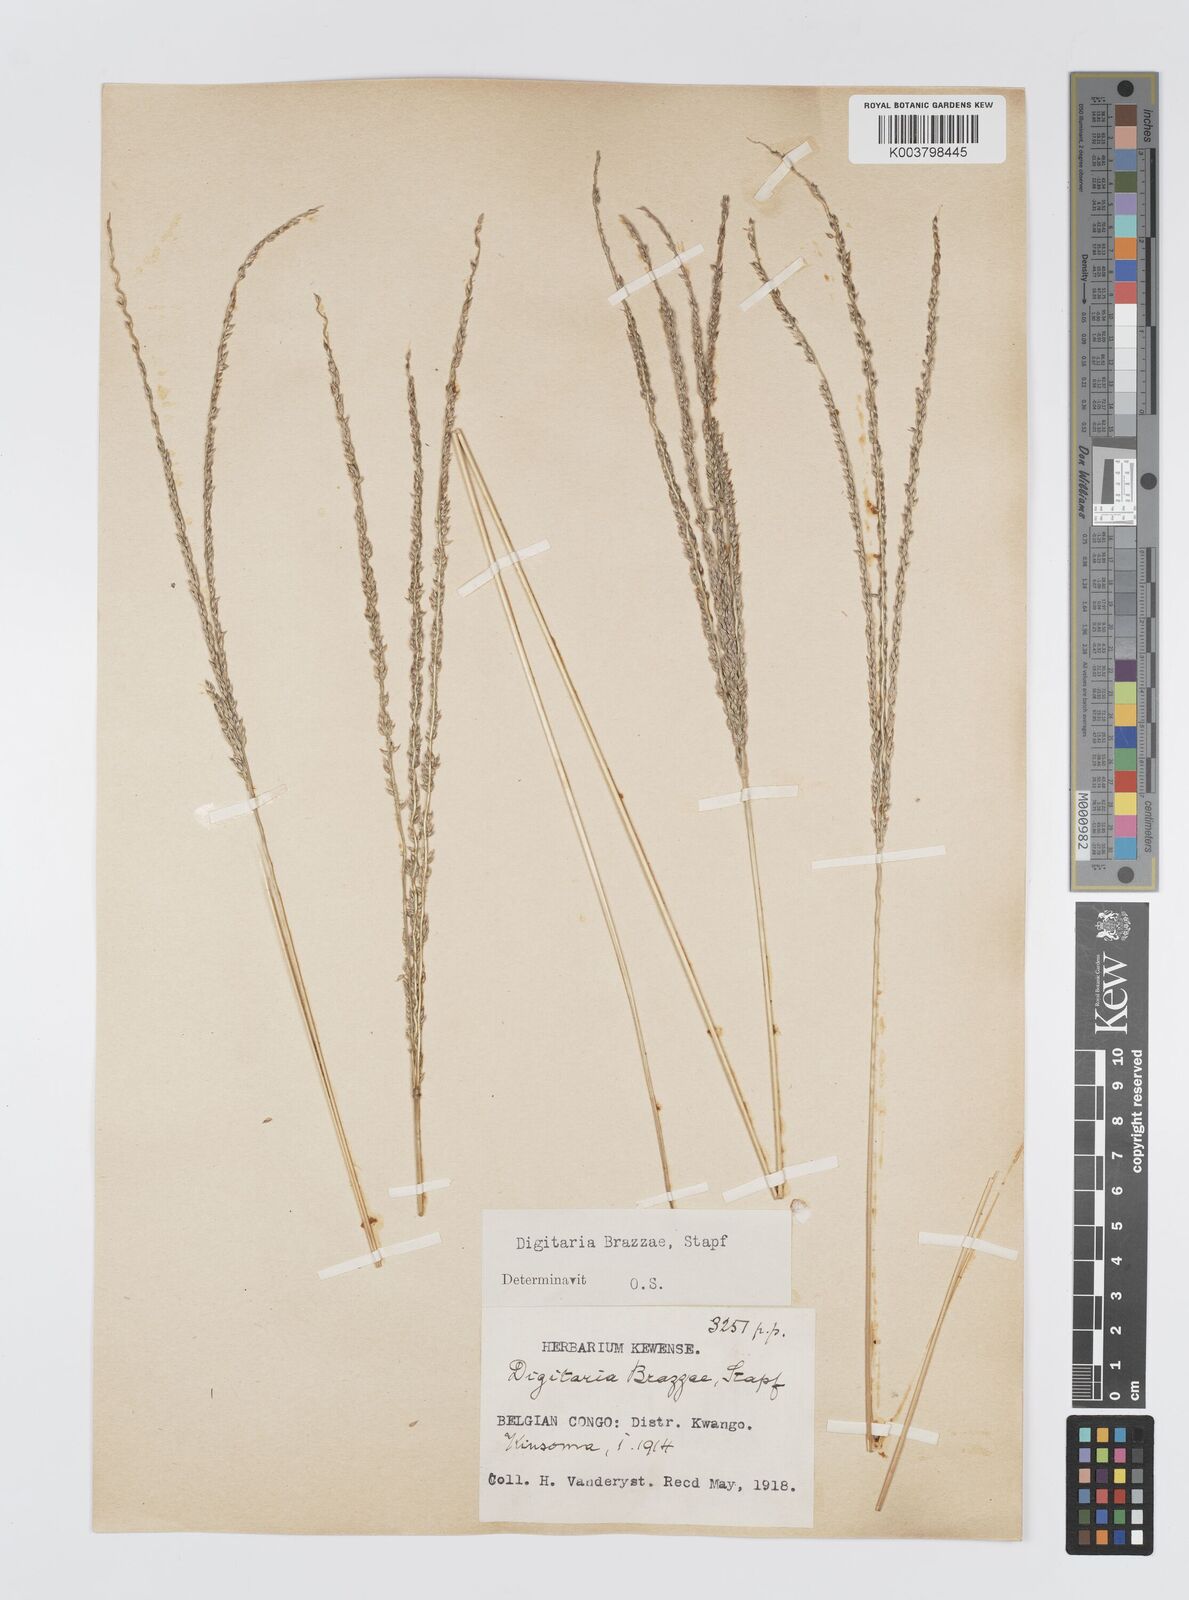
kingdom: Plantae
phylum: Tracheophyta
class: Liliopsida
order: Poales
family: Poaceae
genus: Digitaria
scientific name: Digitaria brazzae
